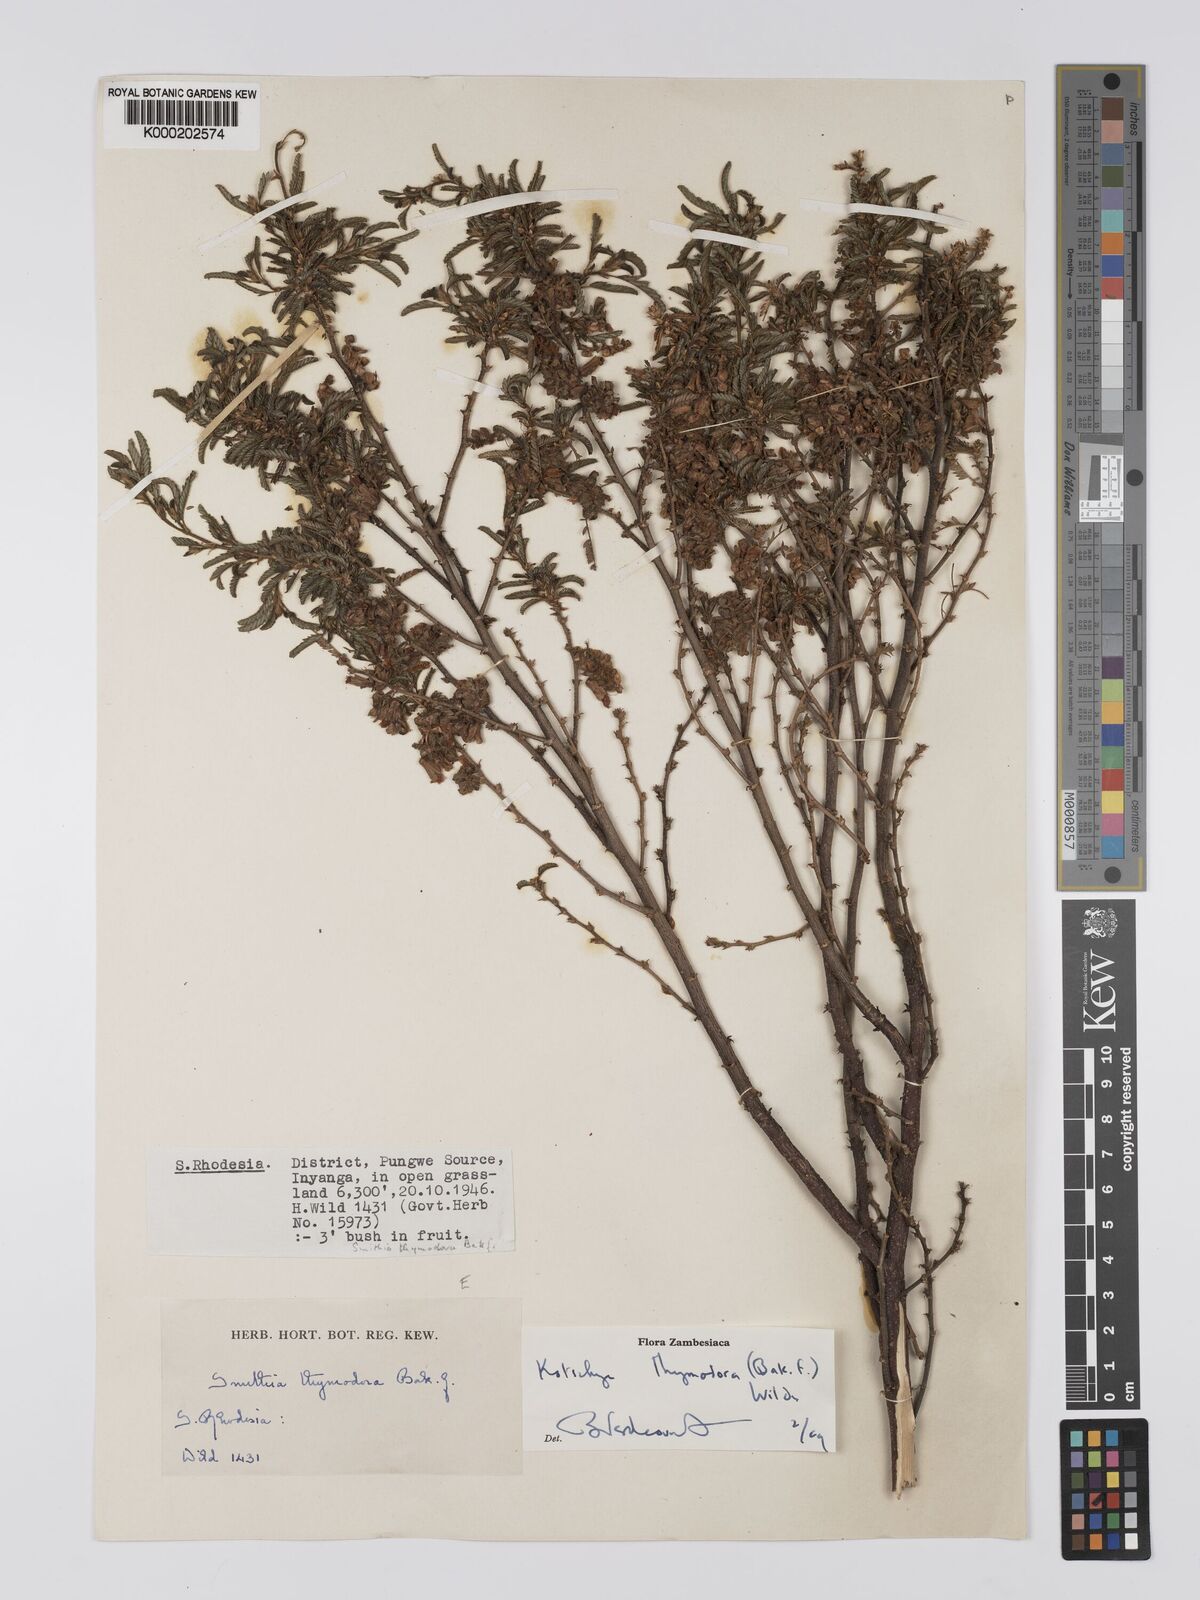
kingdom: Plantae
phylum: Tracheophyta
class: Magnoliopsida
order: Fabales
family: Fabaceae
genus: Kotschya
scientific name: Kotschya thymodora
